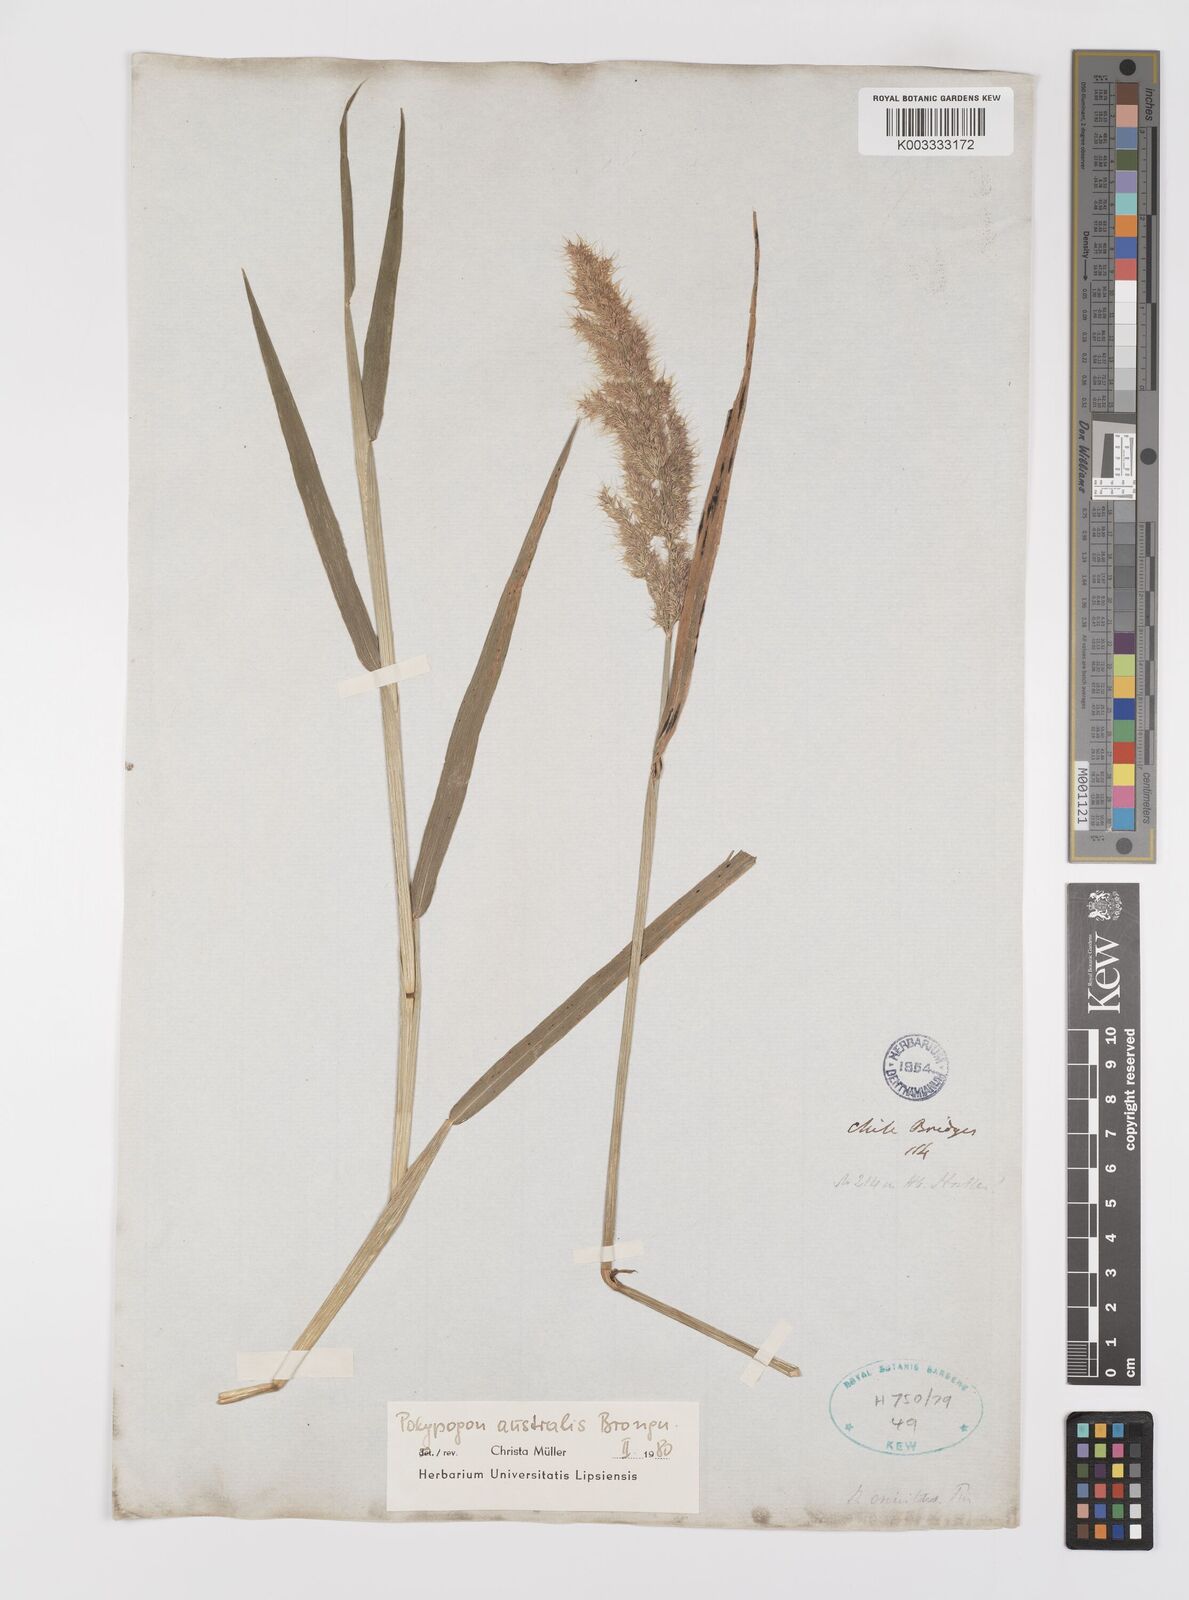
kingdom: Plantae
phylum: Tracheophyta
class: Liliopsida
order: Poales
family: Poaceae
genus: Polypogon
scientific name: Polypogon australis
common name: Chilean rabbitsfoot grass
